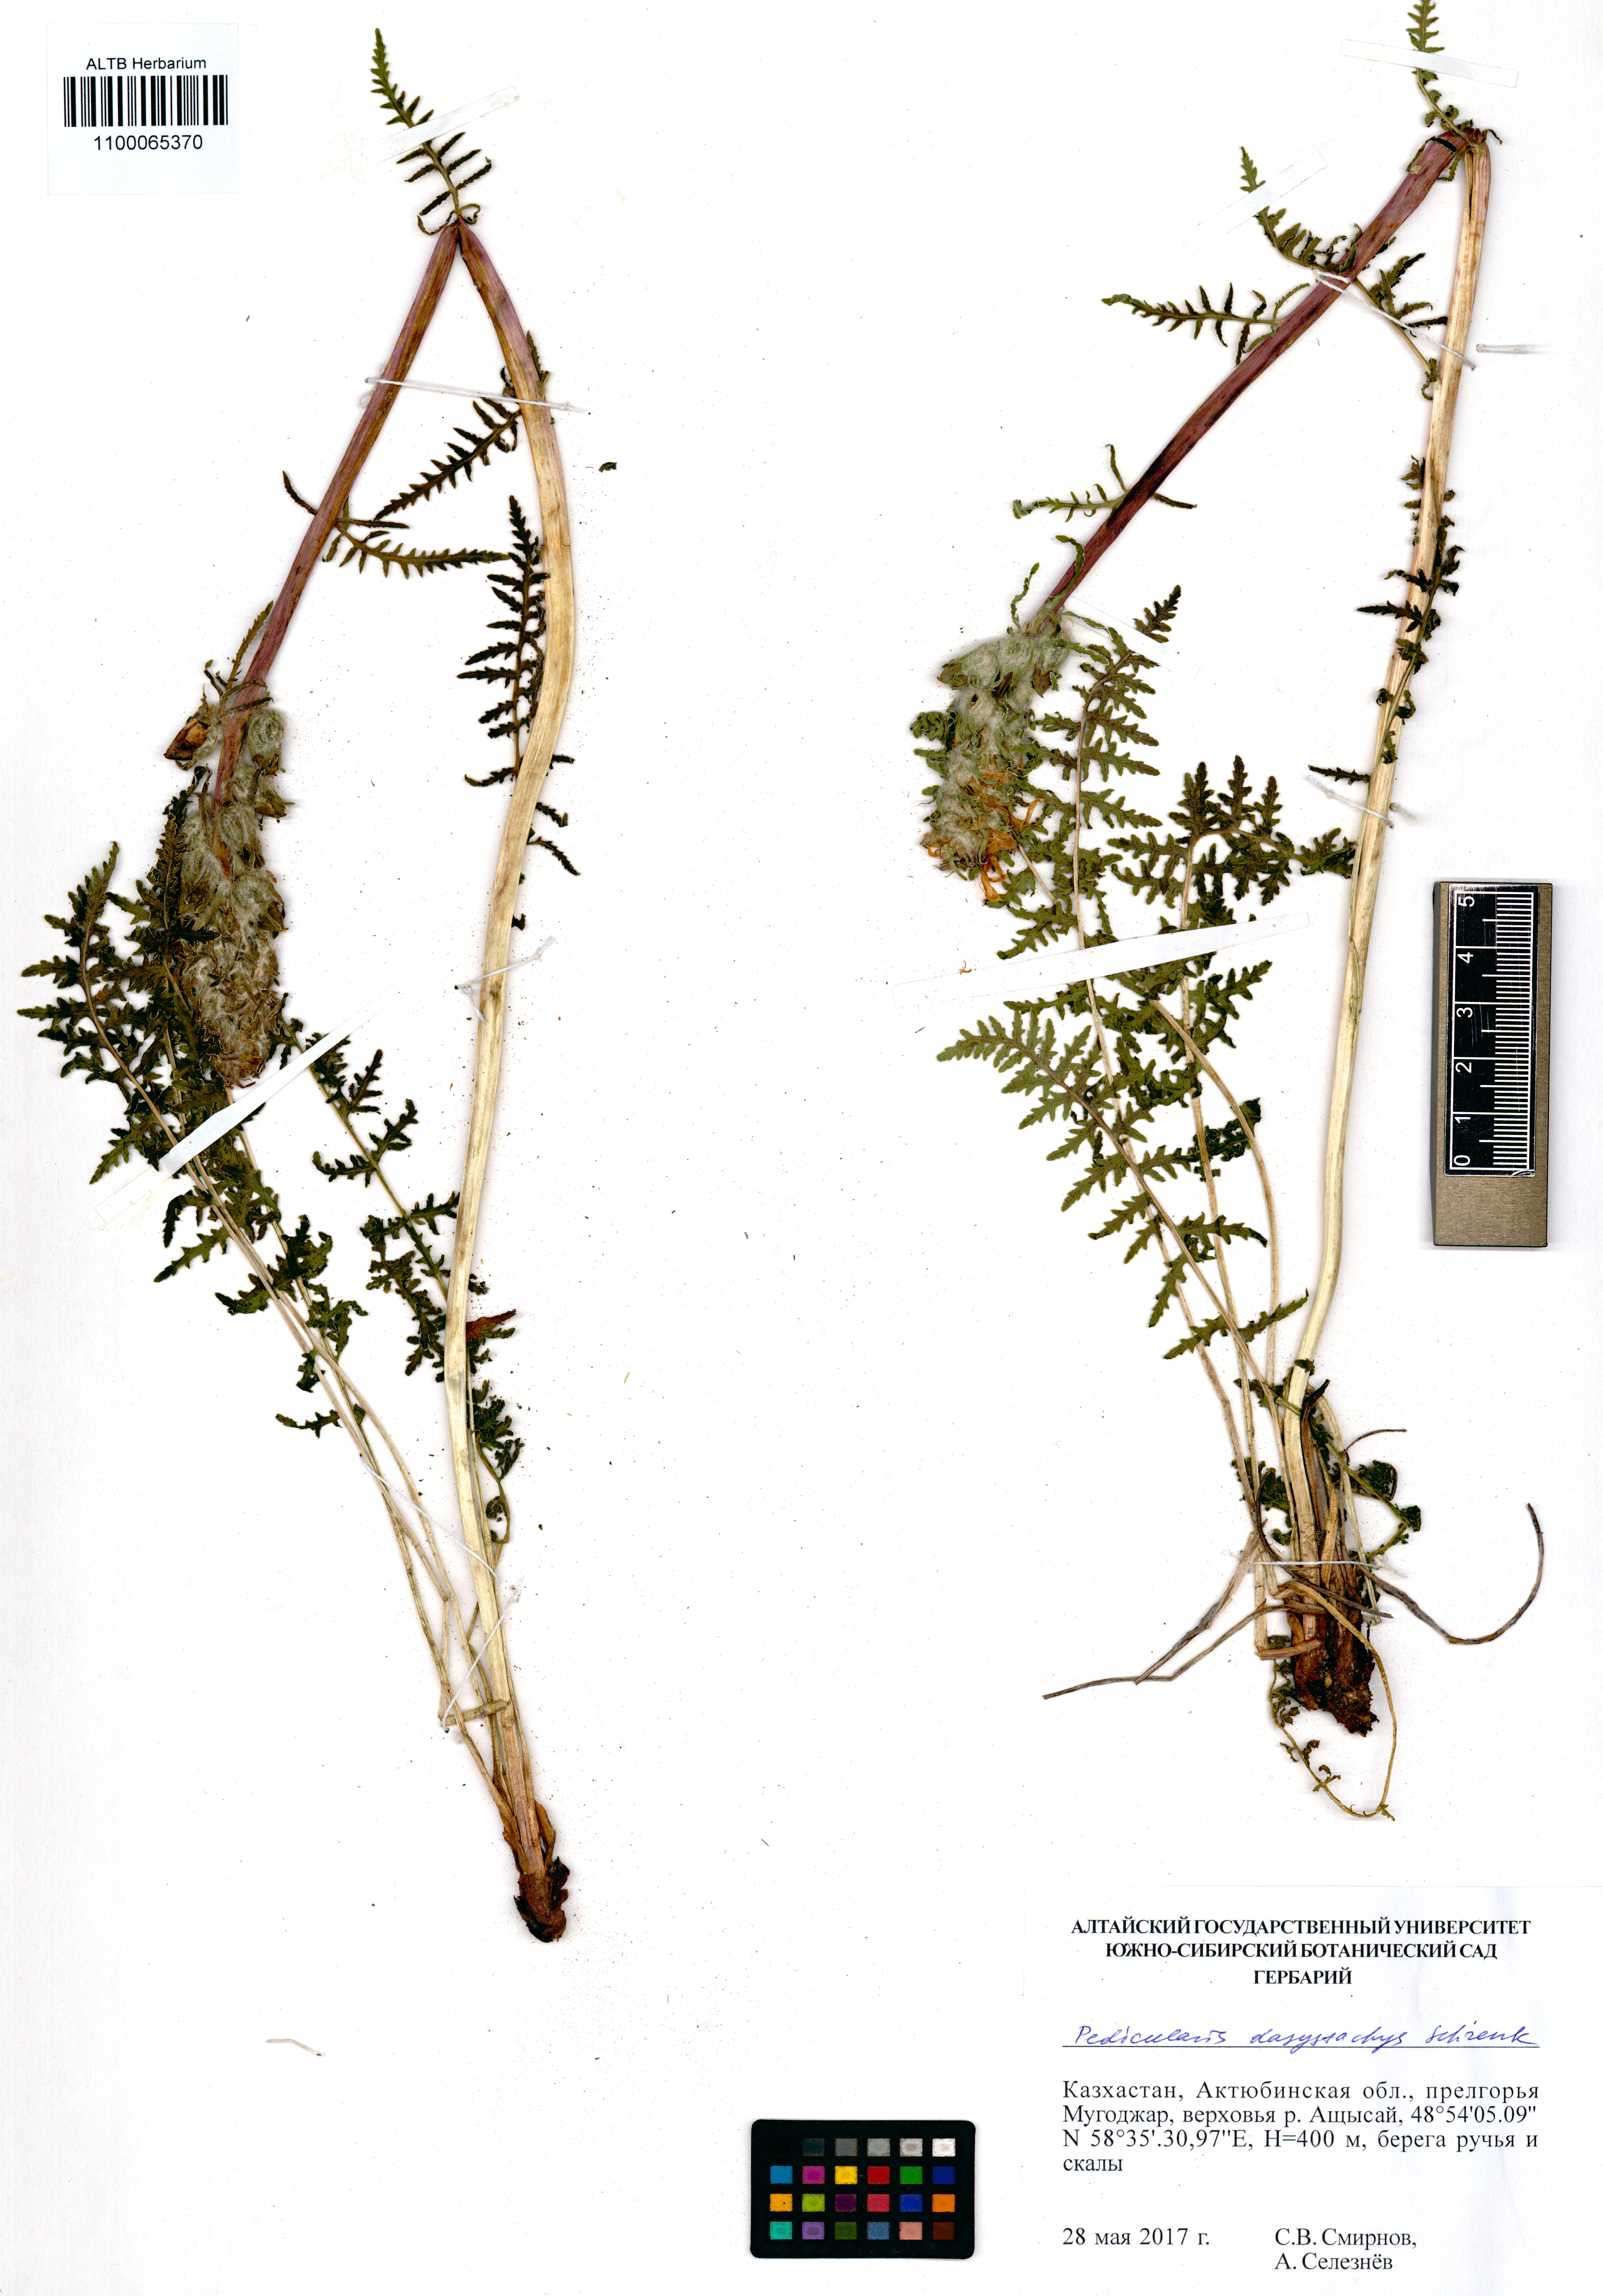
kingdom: Plantae
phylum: Tracheophyta
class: Magnoliopsida
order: Lamiales
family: Orobanchaceae
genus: Pedicularis
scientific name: Pedicularis dasystachys
